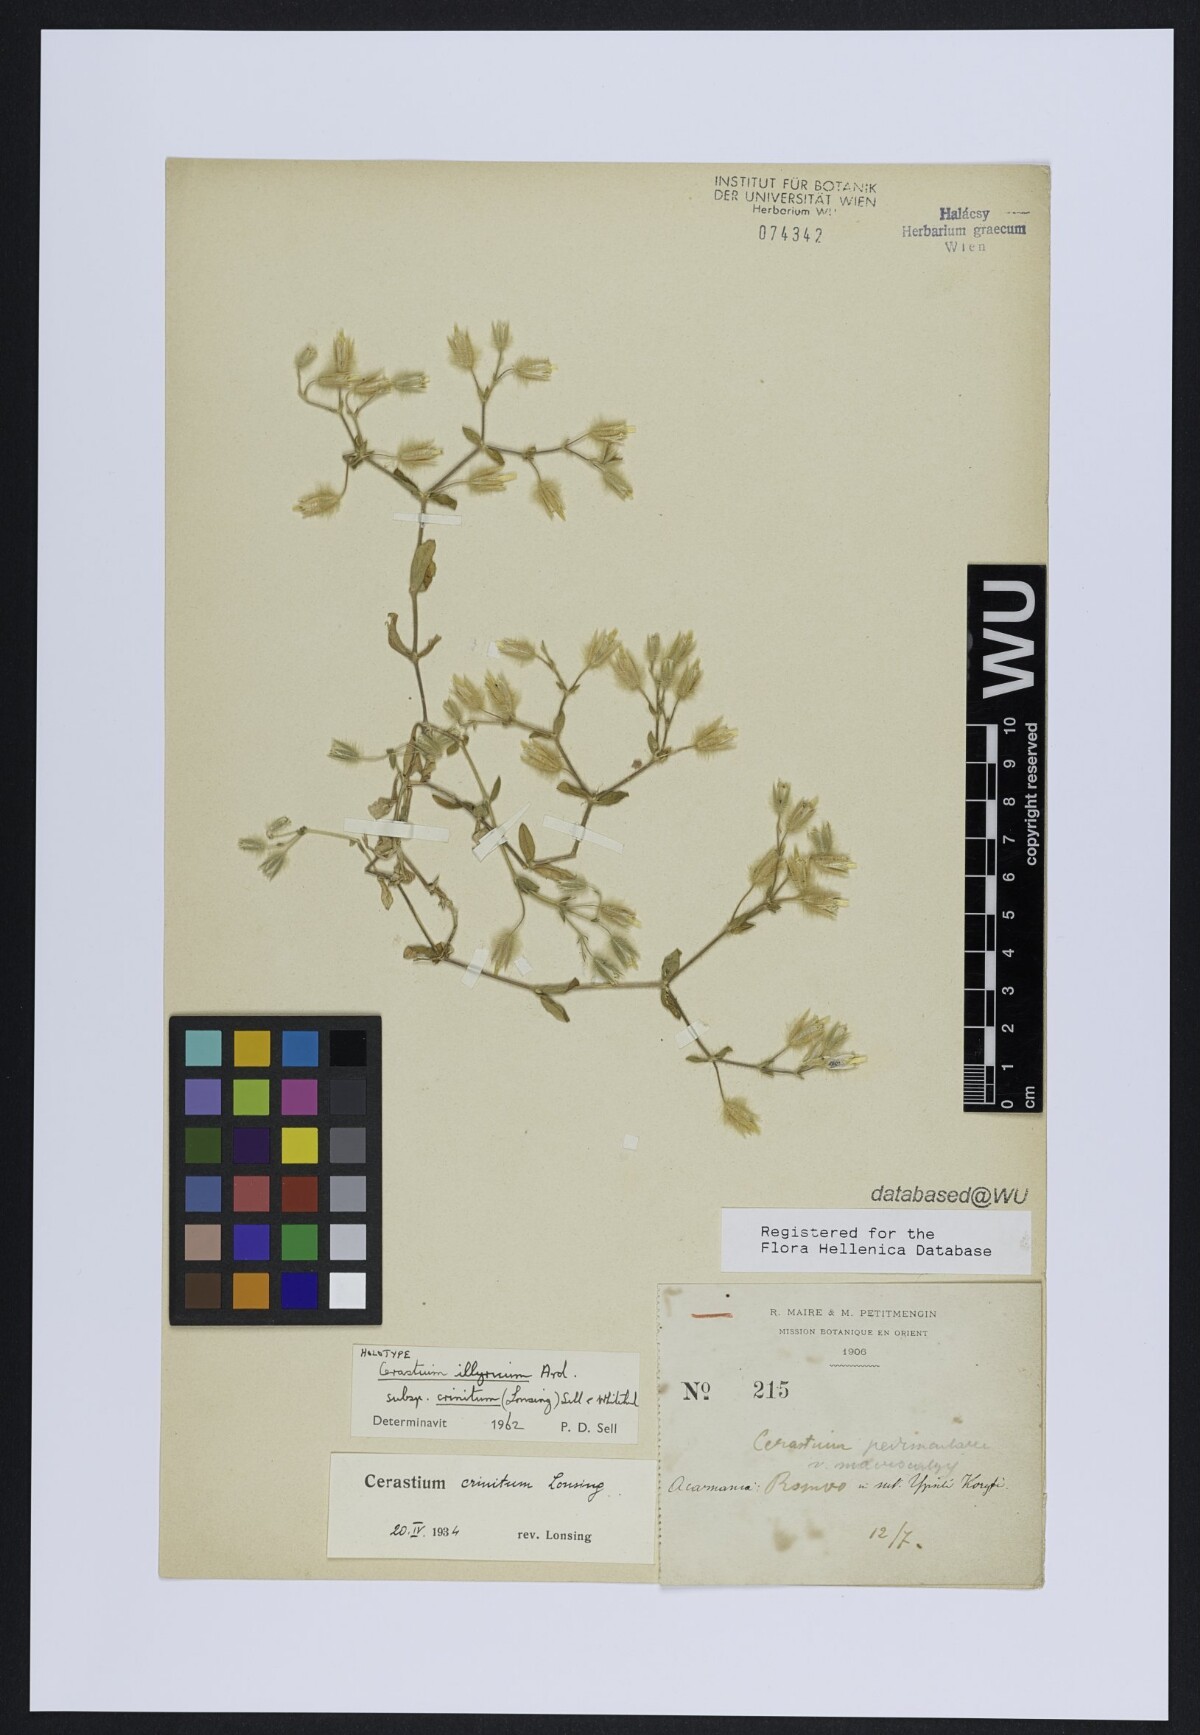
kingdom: Plantae
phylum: Tracheophyta
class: Magnoliopsida
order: Caryophyllales
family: Caryophyllaceae
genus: Cerastium
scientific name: Cerastium illyricum
